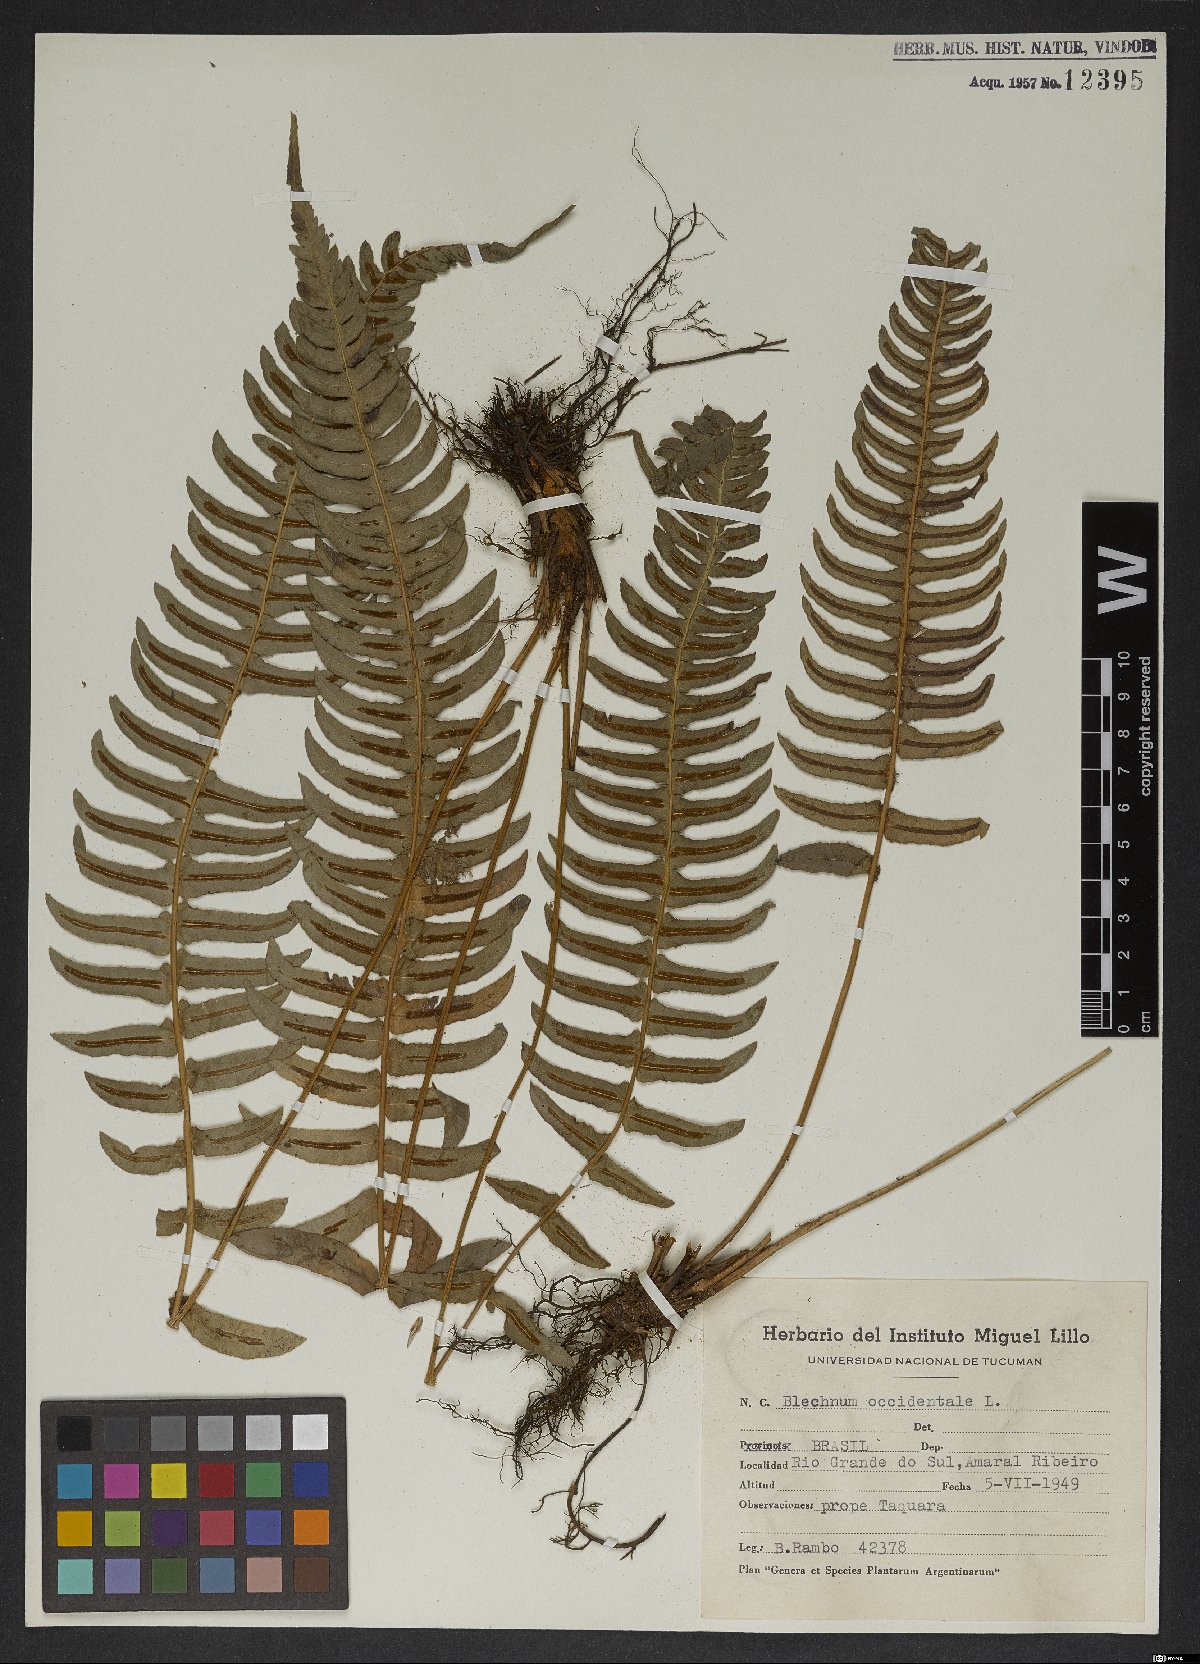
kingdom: Plantae
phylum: Tracheophyta
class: Polypodiopsida
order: Polypodiales
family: Blechnaceae
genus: Blechnum
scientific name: Blechnum occidentale
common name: Hammock fern
